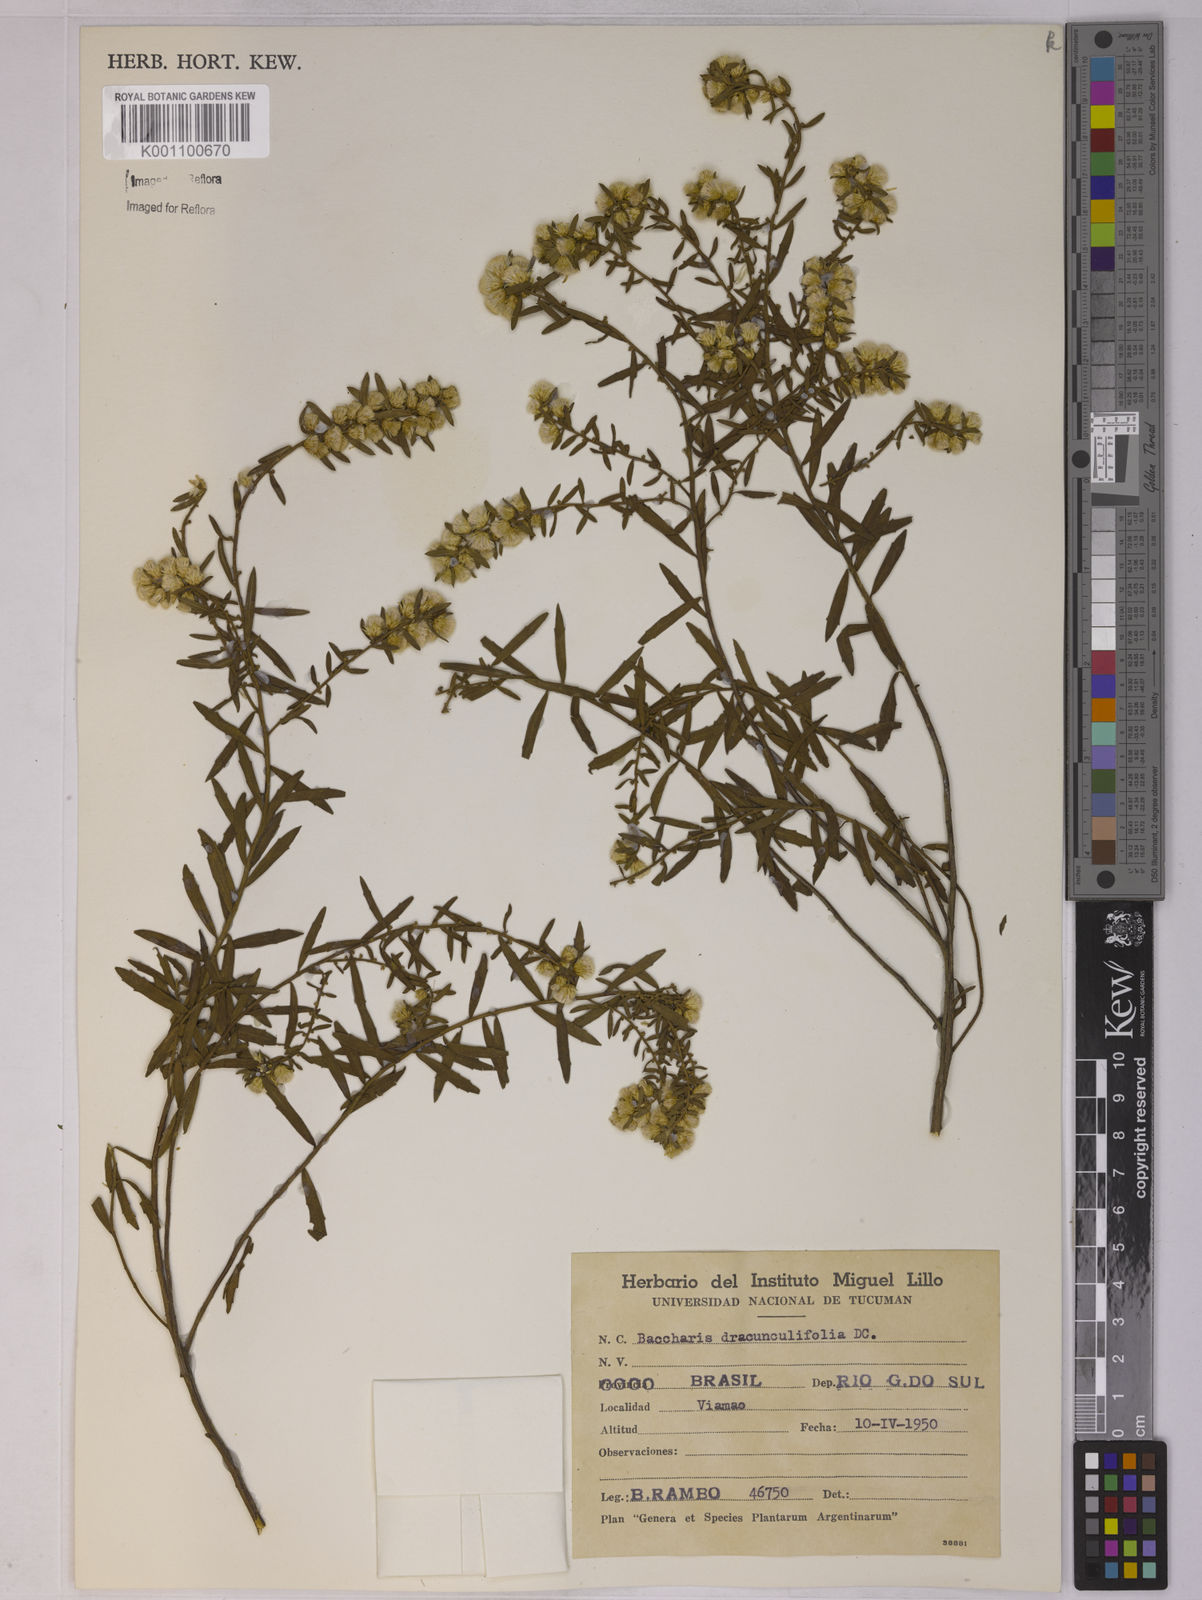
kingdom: Plantae
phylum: Tracheophyta
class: Magnoliopsida
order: Asterales
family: Asteraceae
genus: Baccharis
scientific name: Baccharis dracunculifolia
